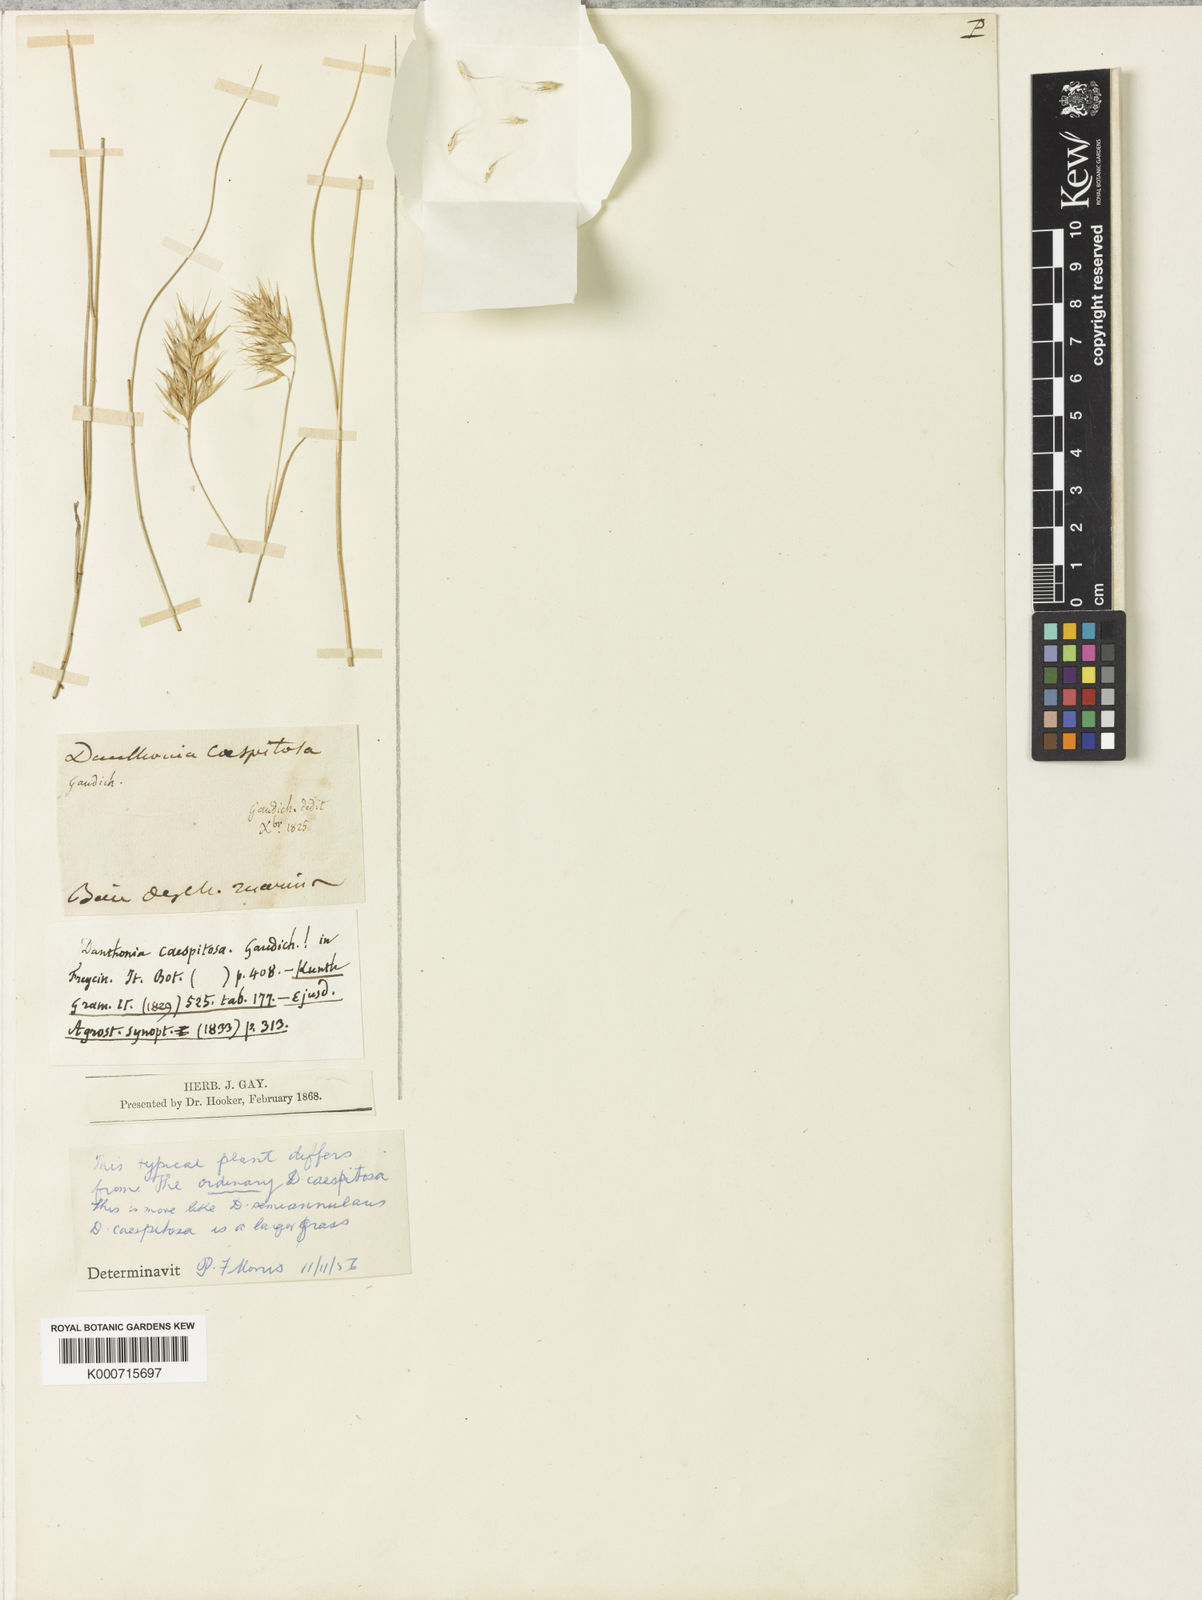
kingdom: Plantae
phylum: Tracheophyta
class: Liliopsida
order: Poales
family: Poaceae
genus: Rytidosperma
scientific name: Rytidosperma caespitosum
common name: Tufted wallaby grass
